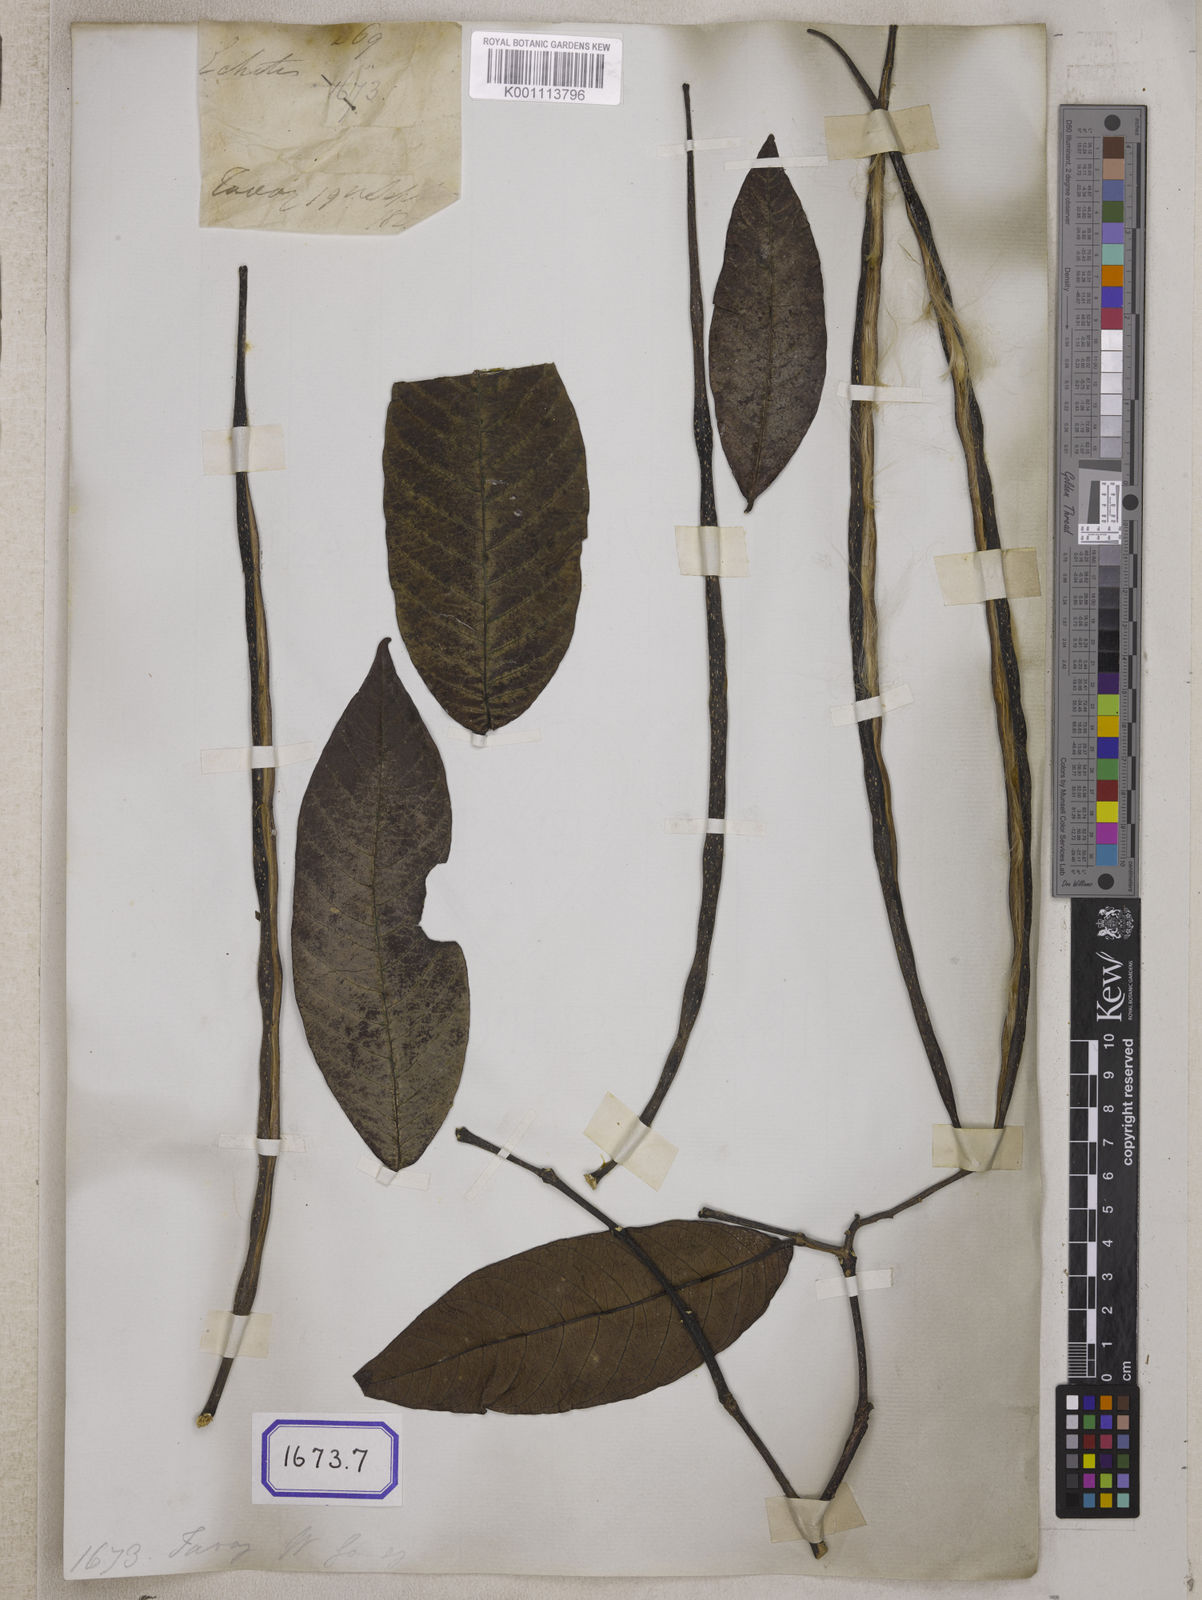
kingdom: Plantae
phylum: Tracheophyta
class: Magnoliopsida
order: Gentianales
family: Apocynaceae
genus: Holarrhena
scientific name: Holarrhena
